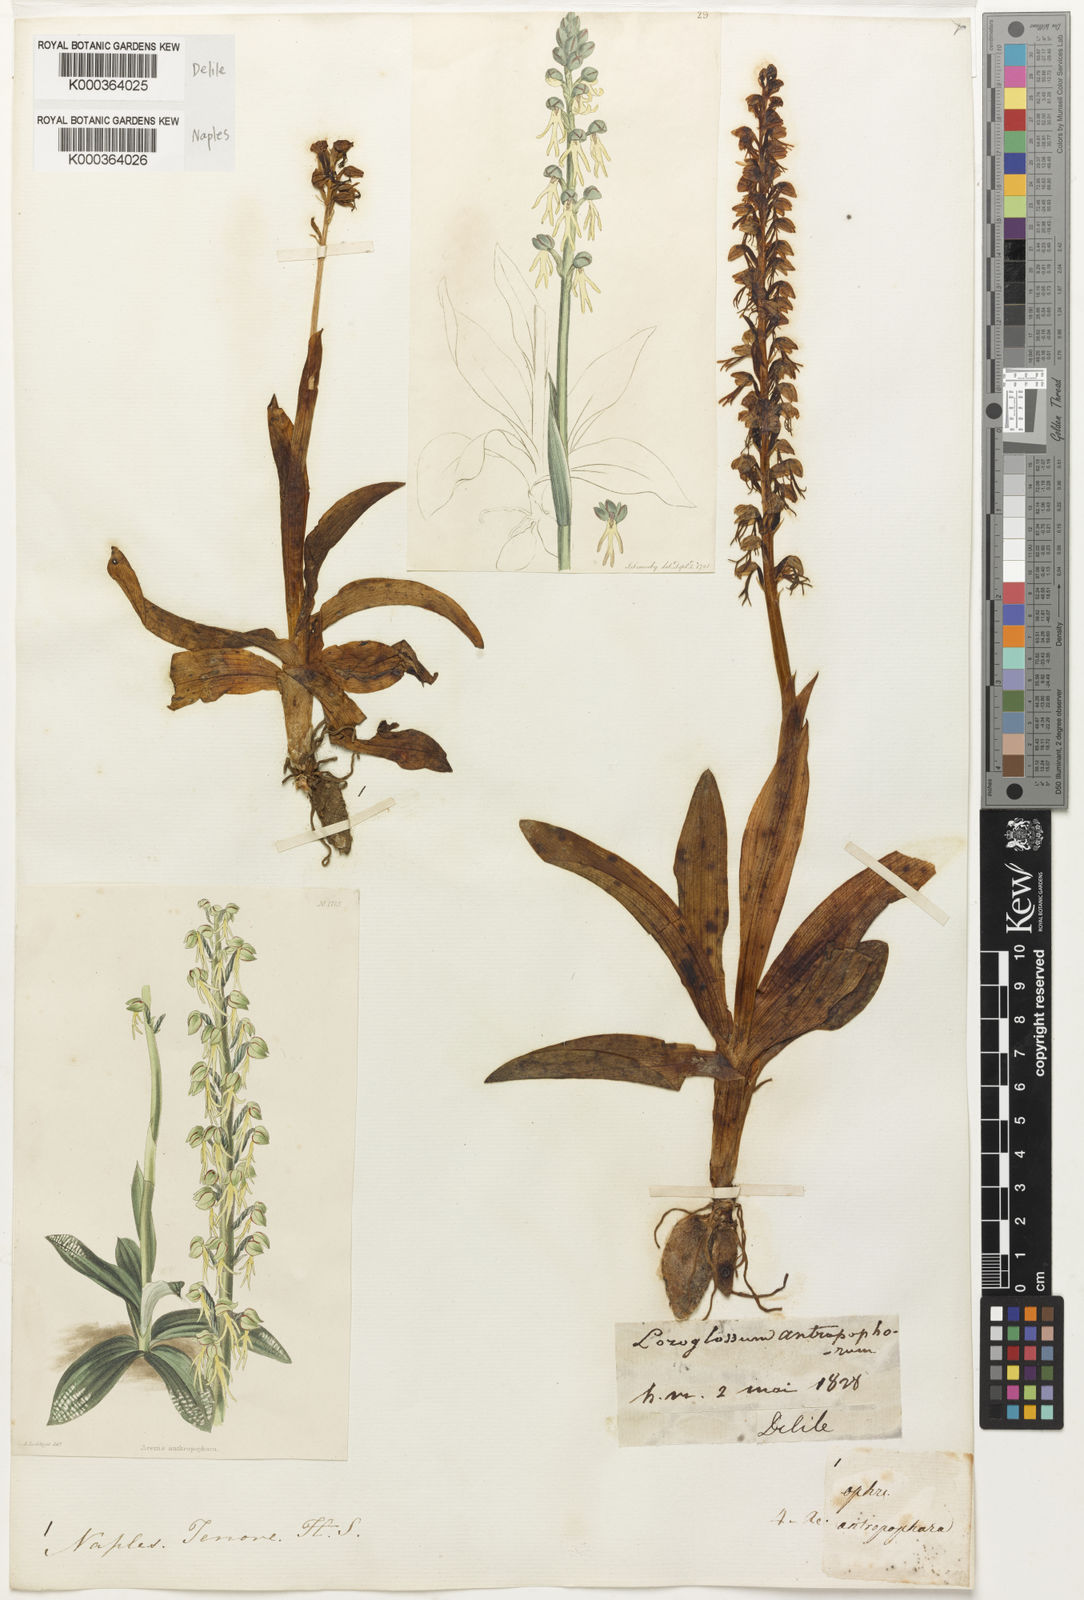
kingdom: Plantae
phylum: Tracheophyta
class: Liliopsida
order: Asparagales
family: Orchidaceae
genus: Orchis
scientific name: Orchis
